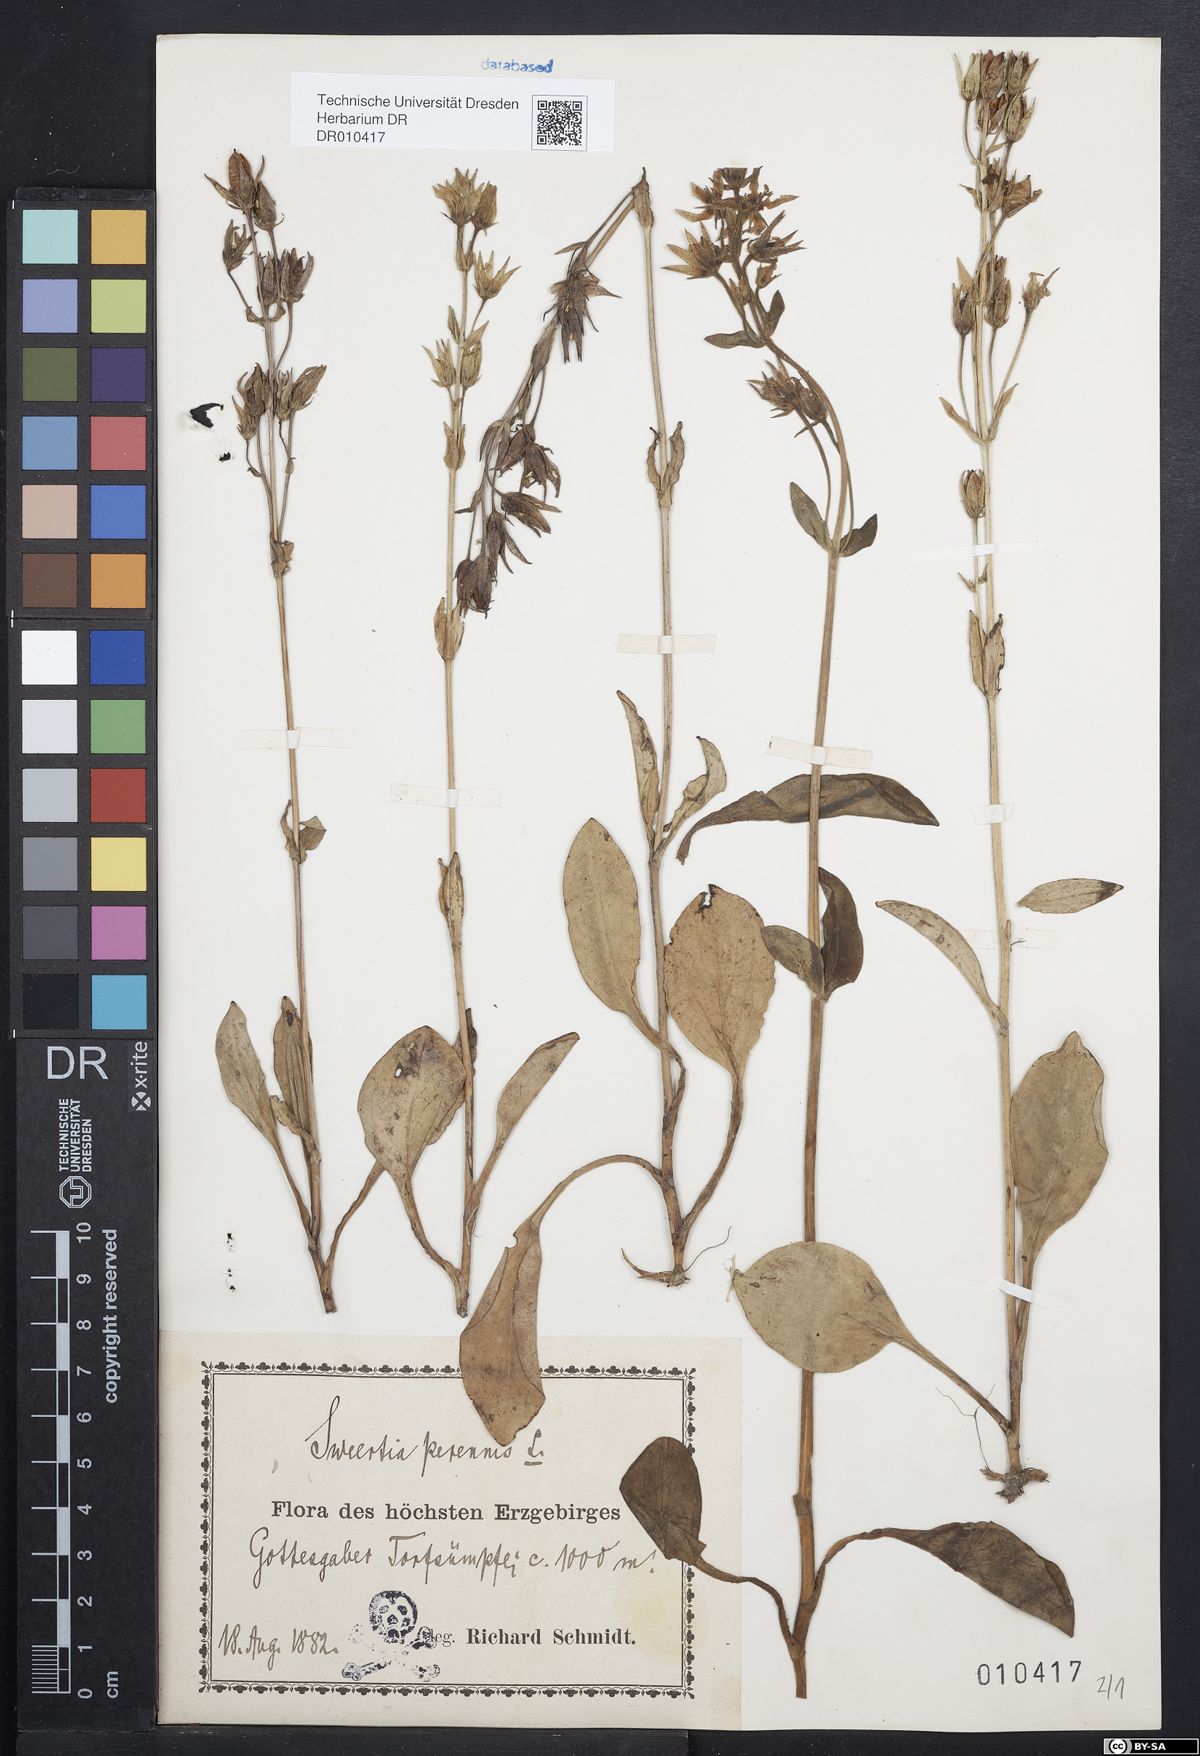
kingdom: Plantae
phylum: Tracheophyta
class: Magnoliopsida
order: Gentianales
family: Gentianaceae
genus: Swertia
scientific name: Swertia perennis
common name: Alpine bog swertia
